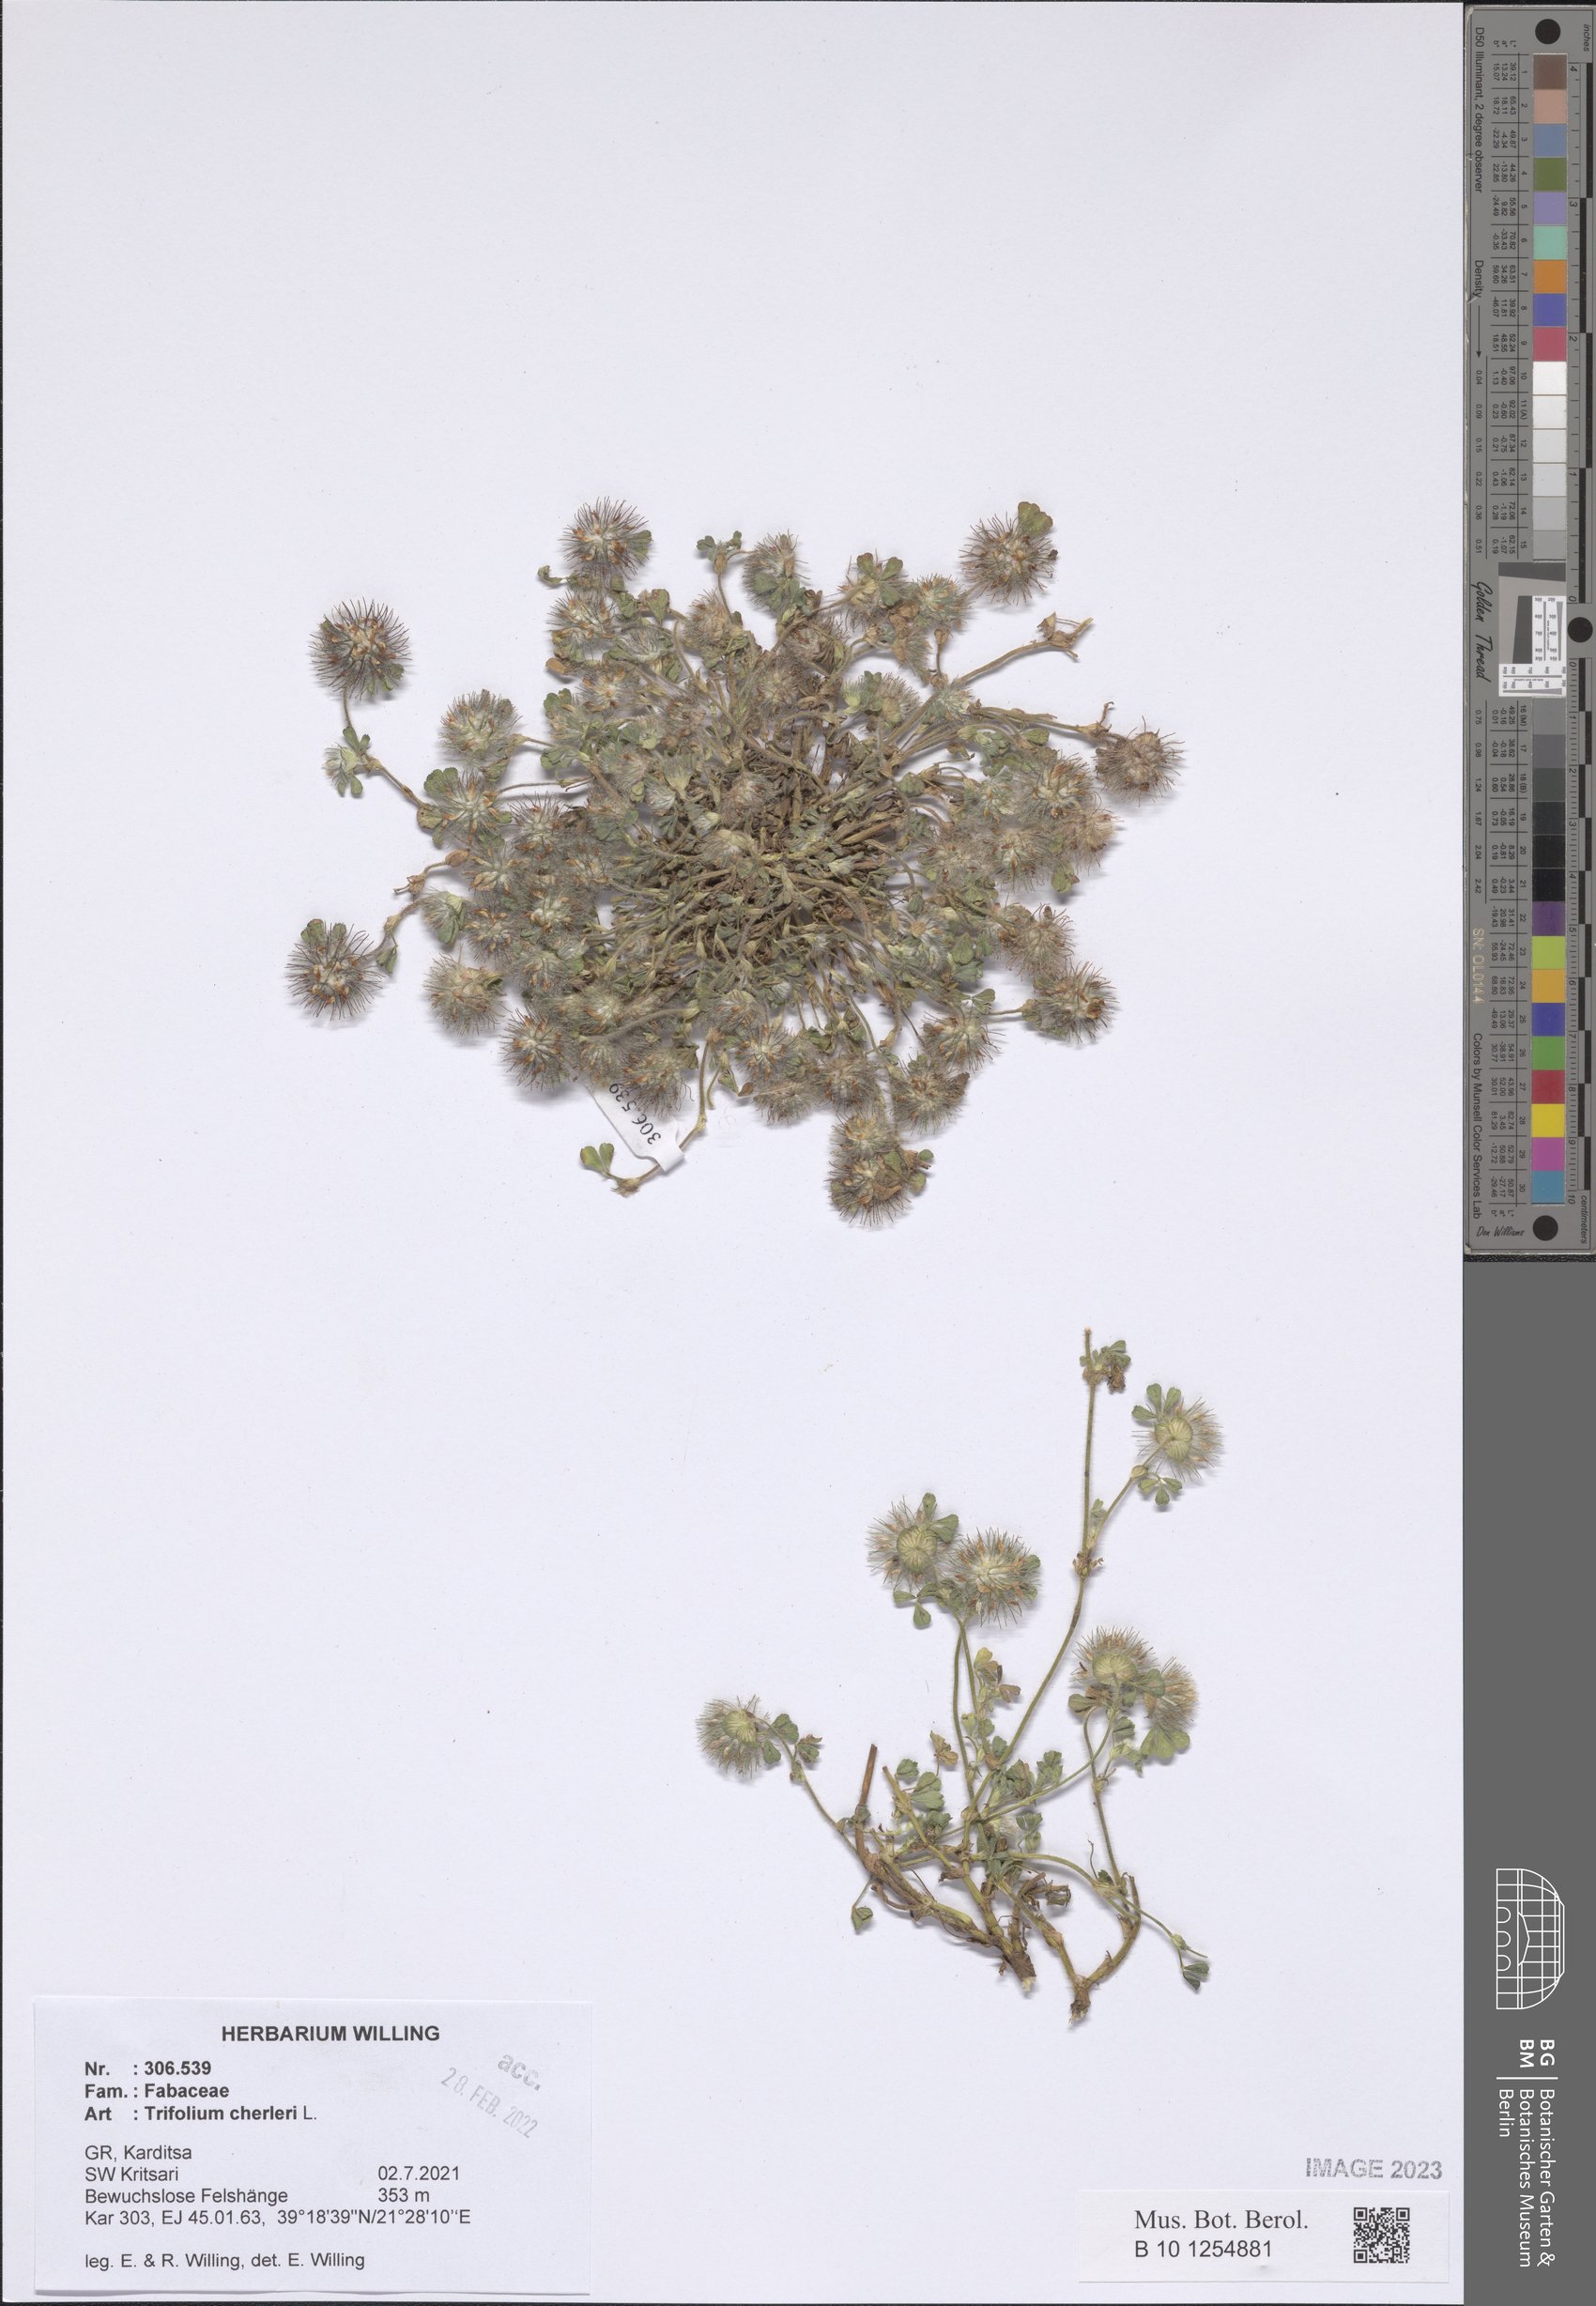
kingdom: Plantae
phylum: Tracheophyta
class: Magnoliopsida
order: Fabales
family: Fabaceae
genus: Trifolium
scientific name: Trifolium cherleri
